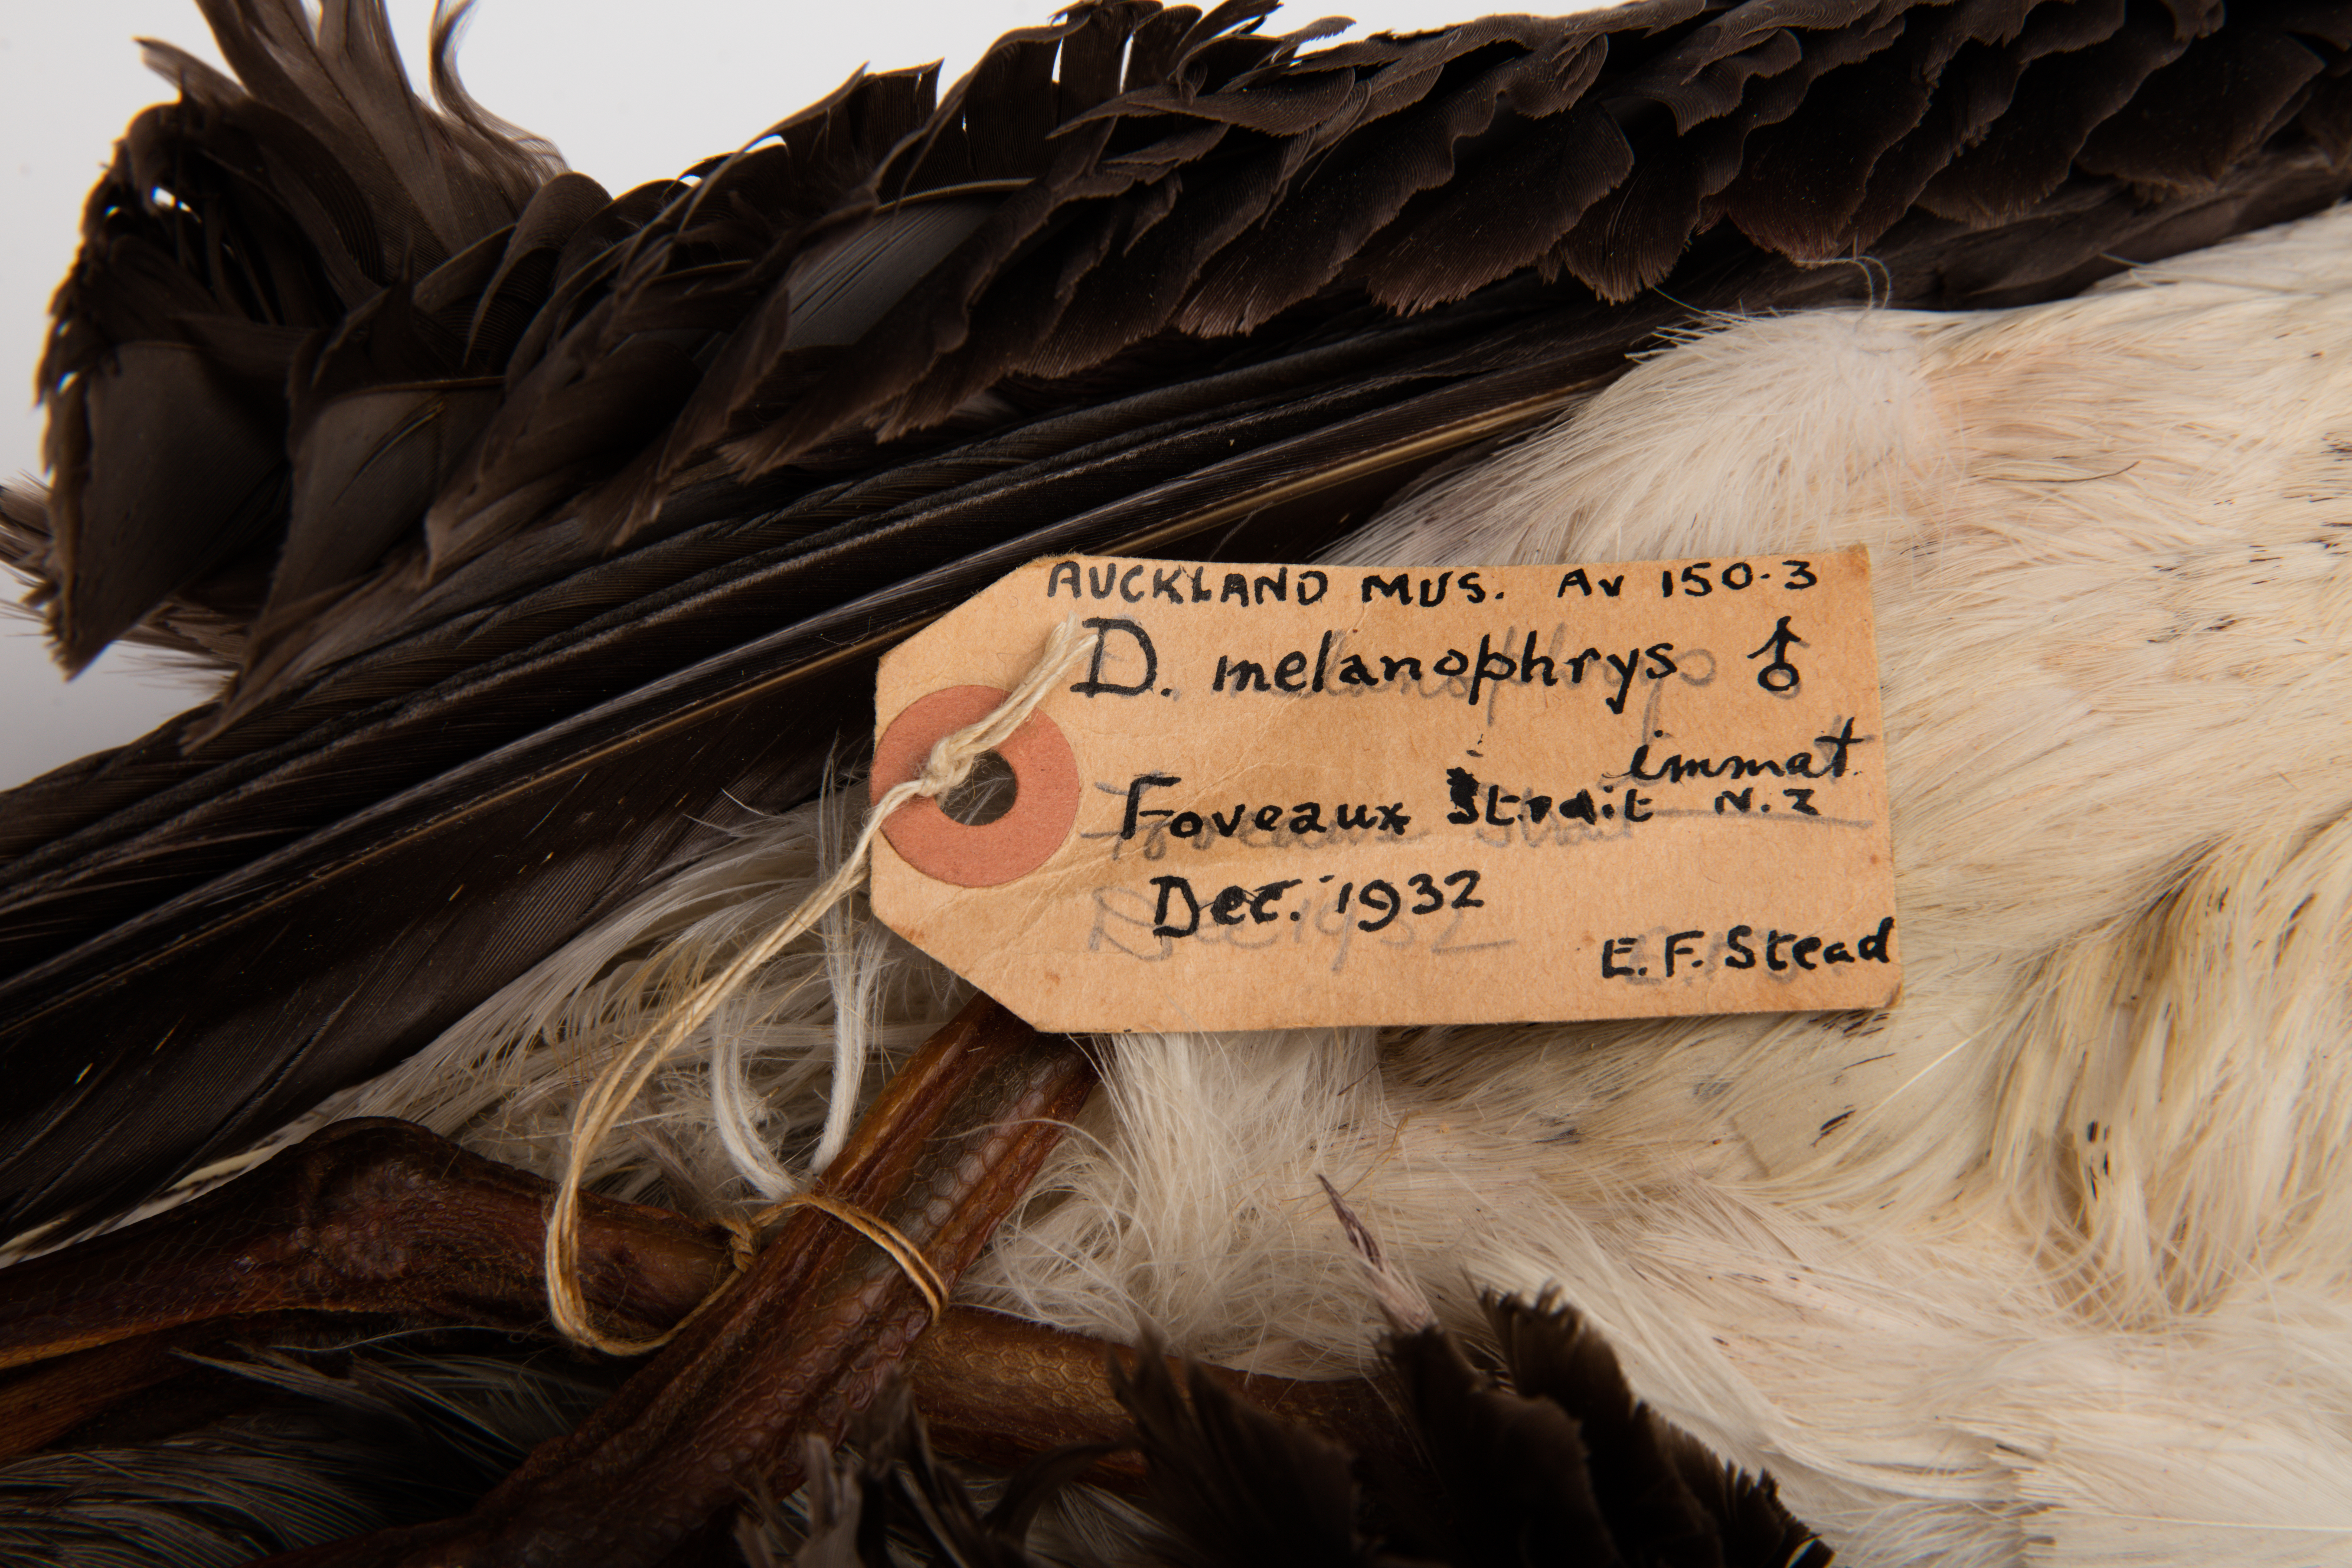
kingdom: Animalia
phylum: Chordata
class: Aves
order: Procellariiformes
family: Diomedeidae
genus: Thalassarche
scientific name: Thalassarche melanophris
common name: Black-browed albatross
